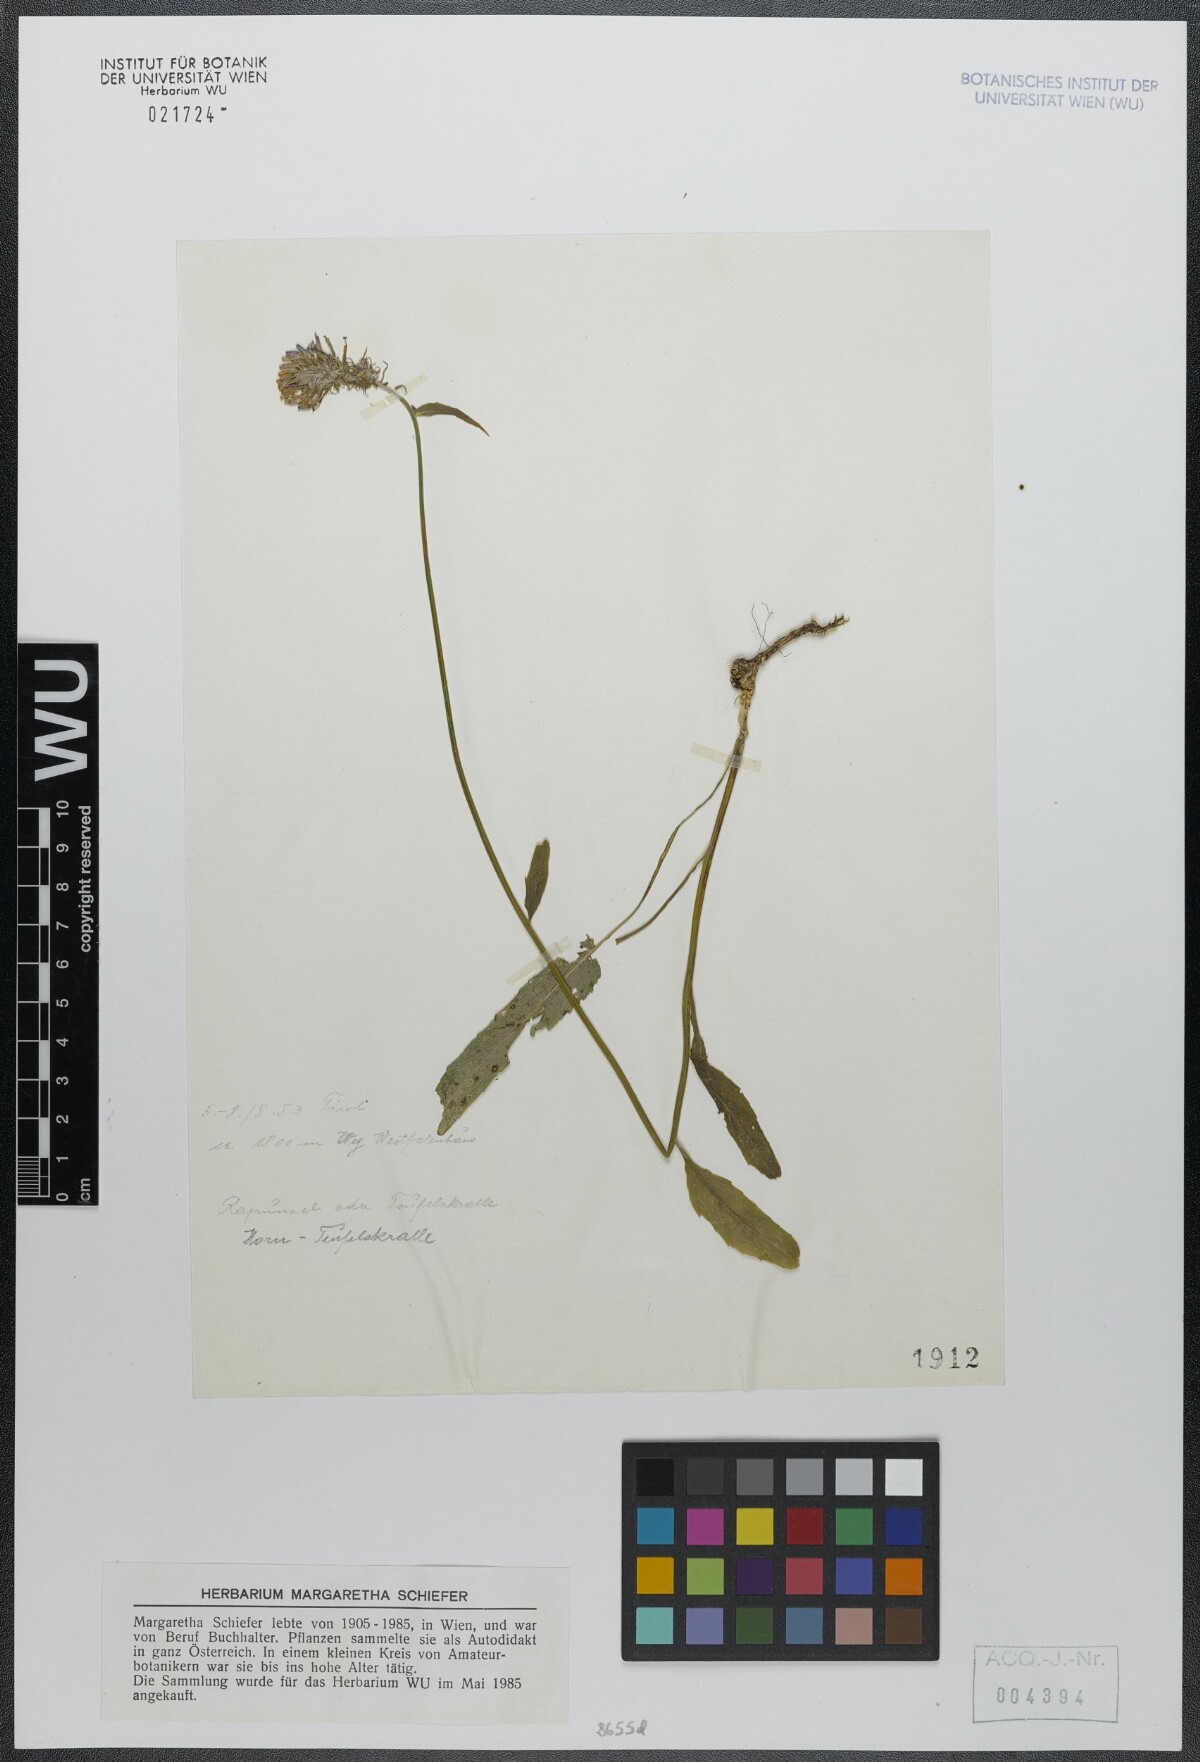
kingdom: Plantae
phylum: Tracheophyta
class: Magnoliopsida
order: Asterales
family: Campanulaceae
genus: Phyteuma
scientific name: Phyteuma scheuchzeri
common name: Oxford rampion
